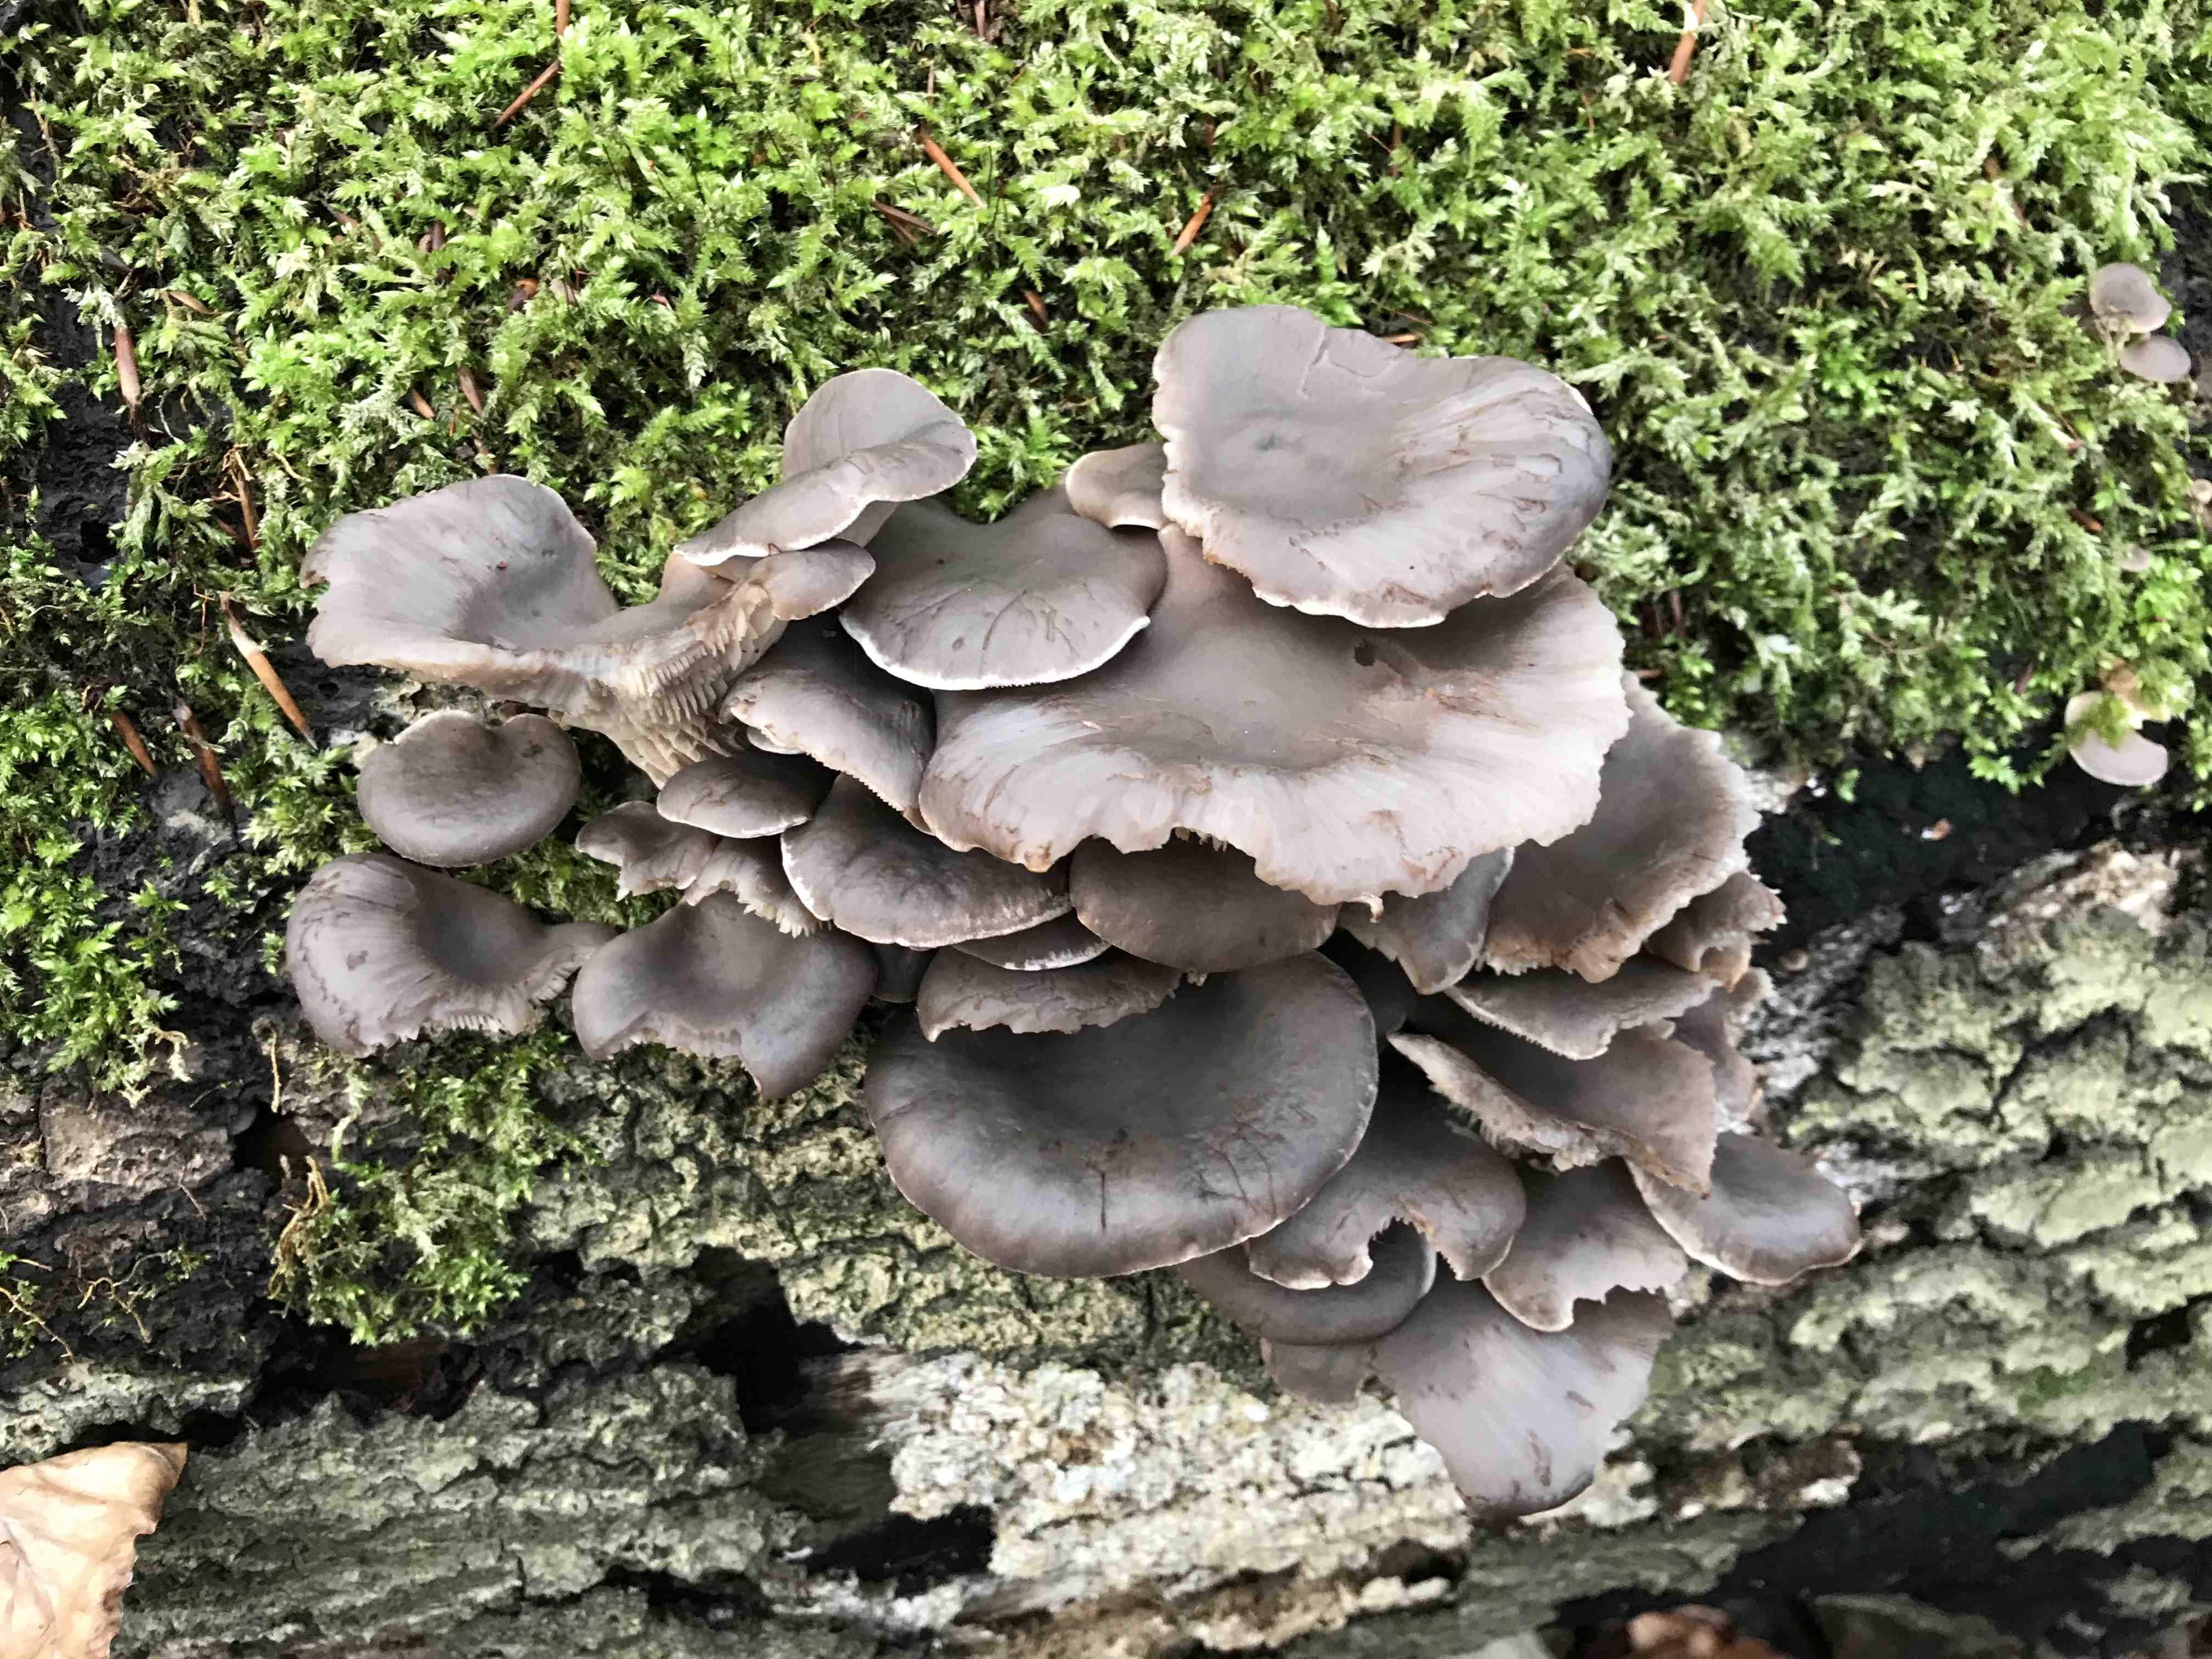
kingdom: Fungi
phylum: Basidiomycota
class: Agaricomycetes
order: Agaricales
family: Pleurotaceae
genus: Pleurotus
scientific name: Pleurotus ostreatus
